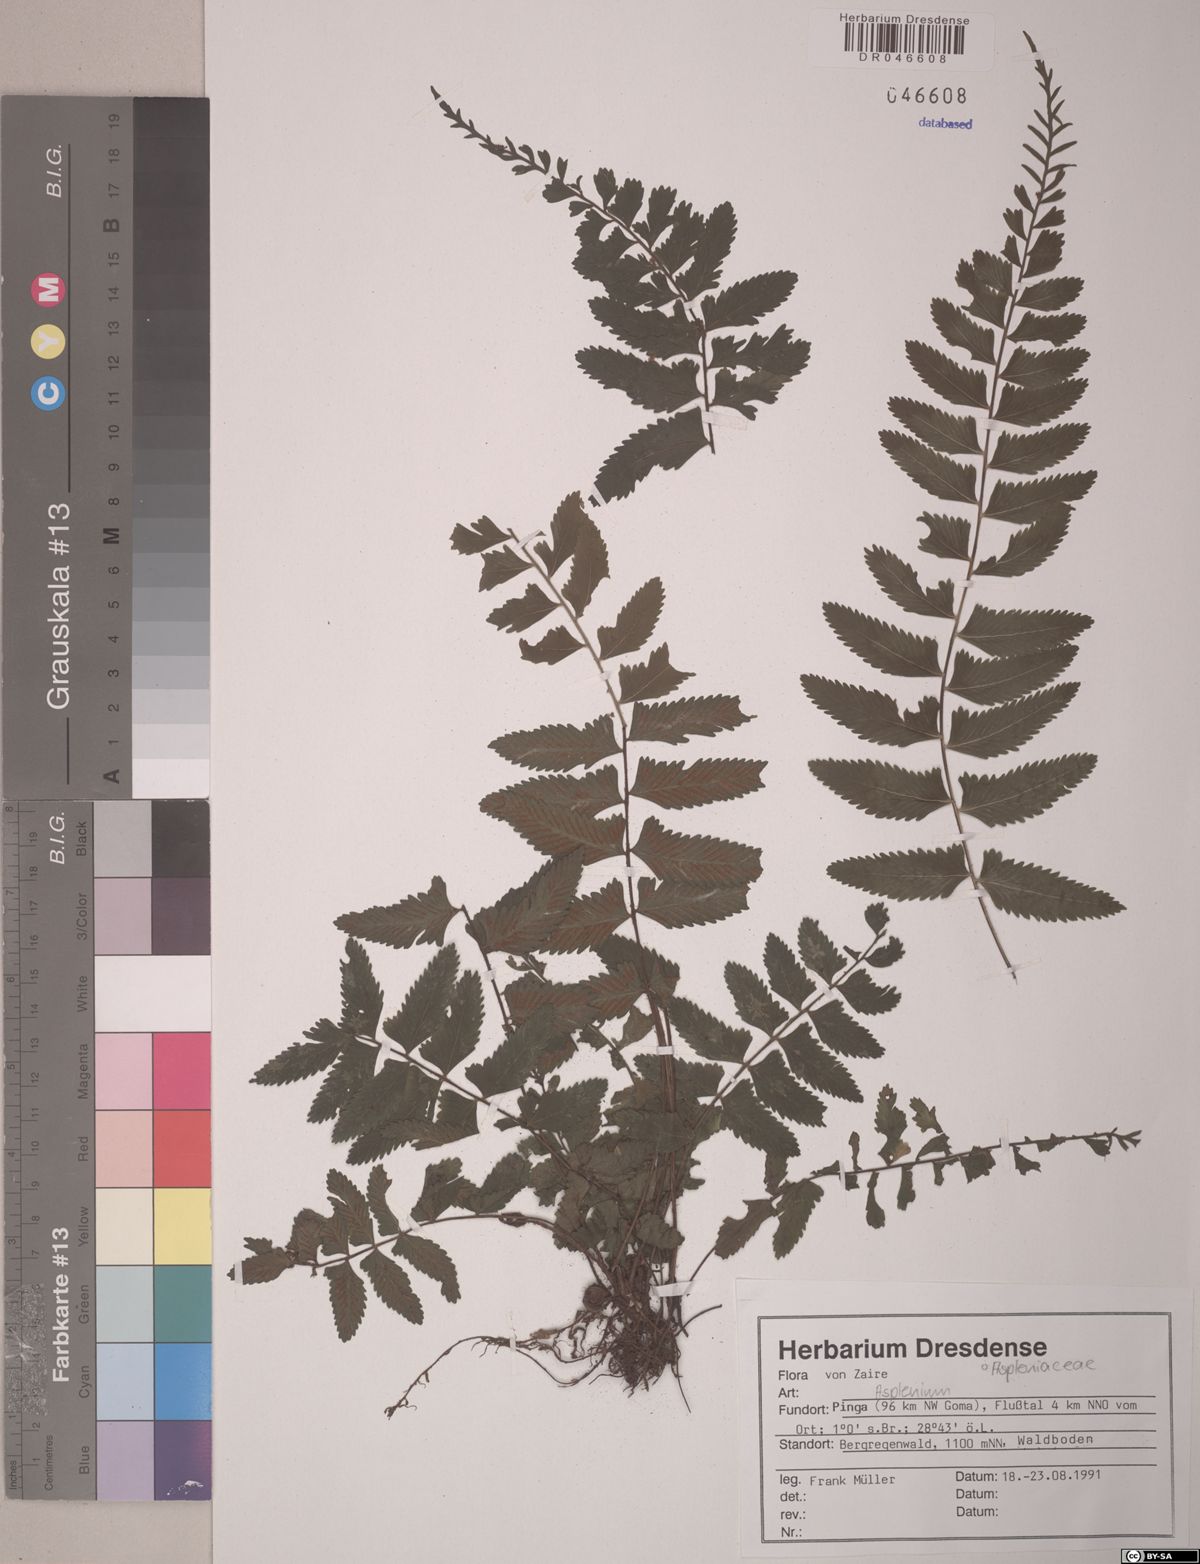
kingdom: Plantae
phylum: Tracheophyta
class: Polypodiopsida
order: Polypodiales
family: Aspleniaceae
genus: Asplenium
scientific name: Asplenium
